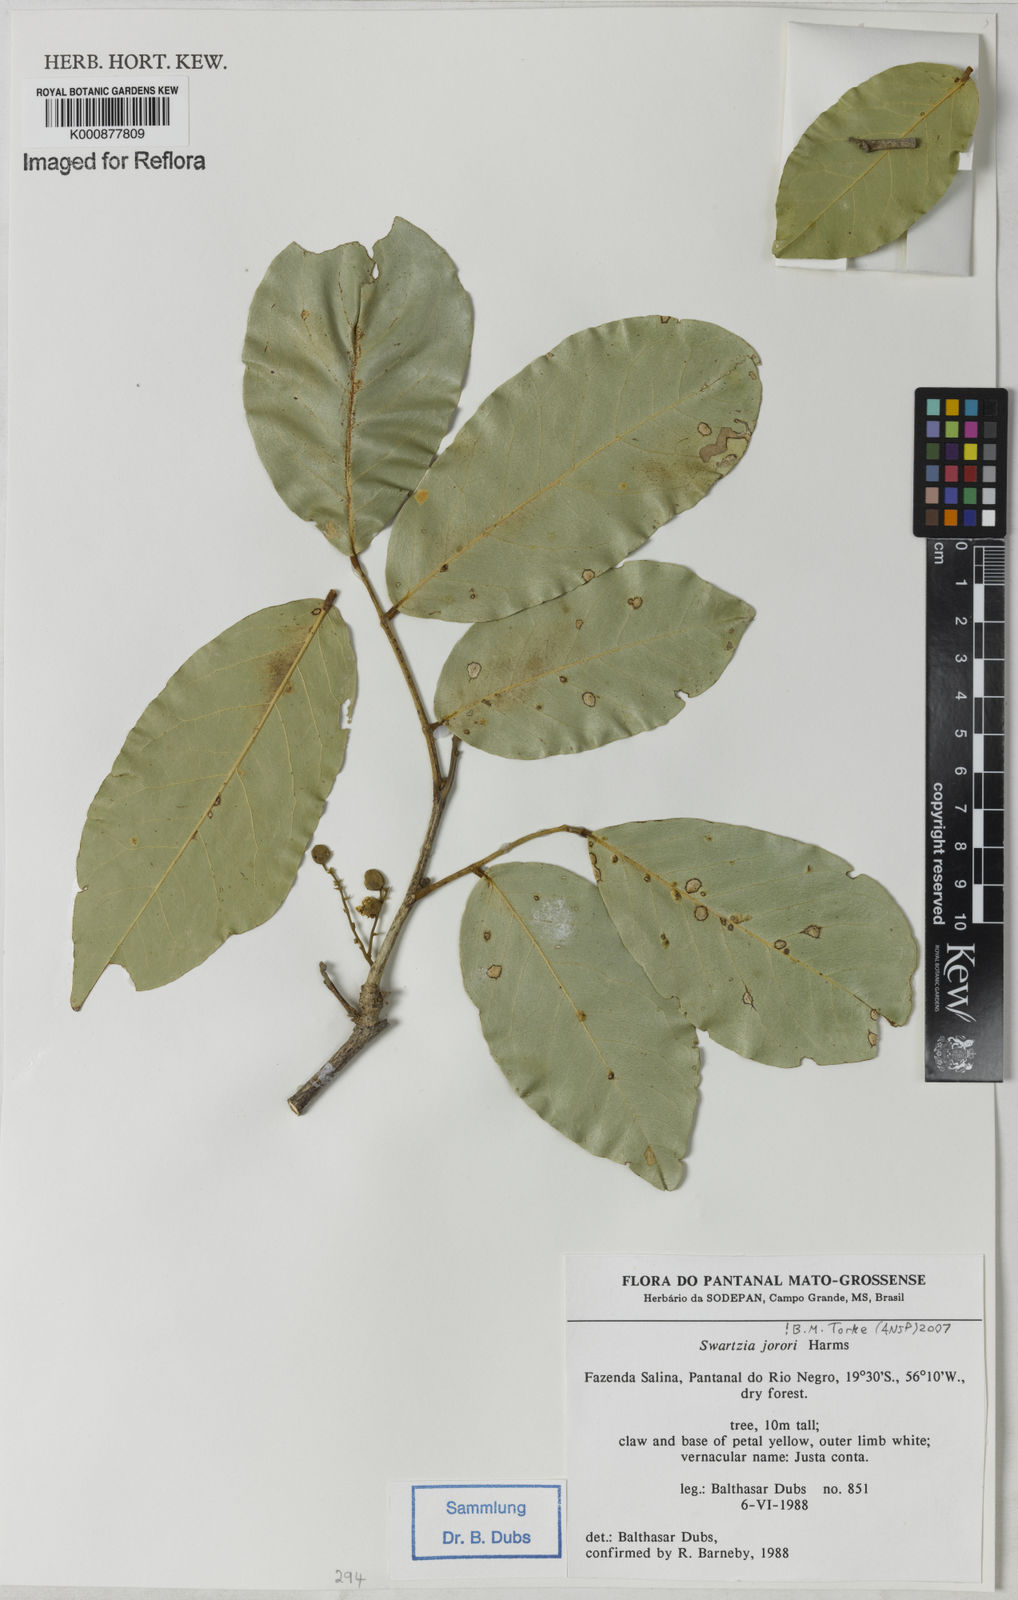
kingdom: Plantae
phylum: Tracheophyta
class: Magnoliopsida
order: Fabales
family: Fabaceae
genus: Swartzia
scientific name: Swartzia jorori
